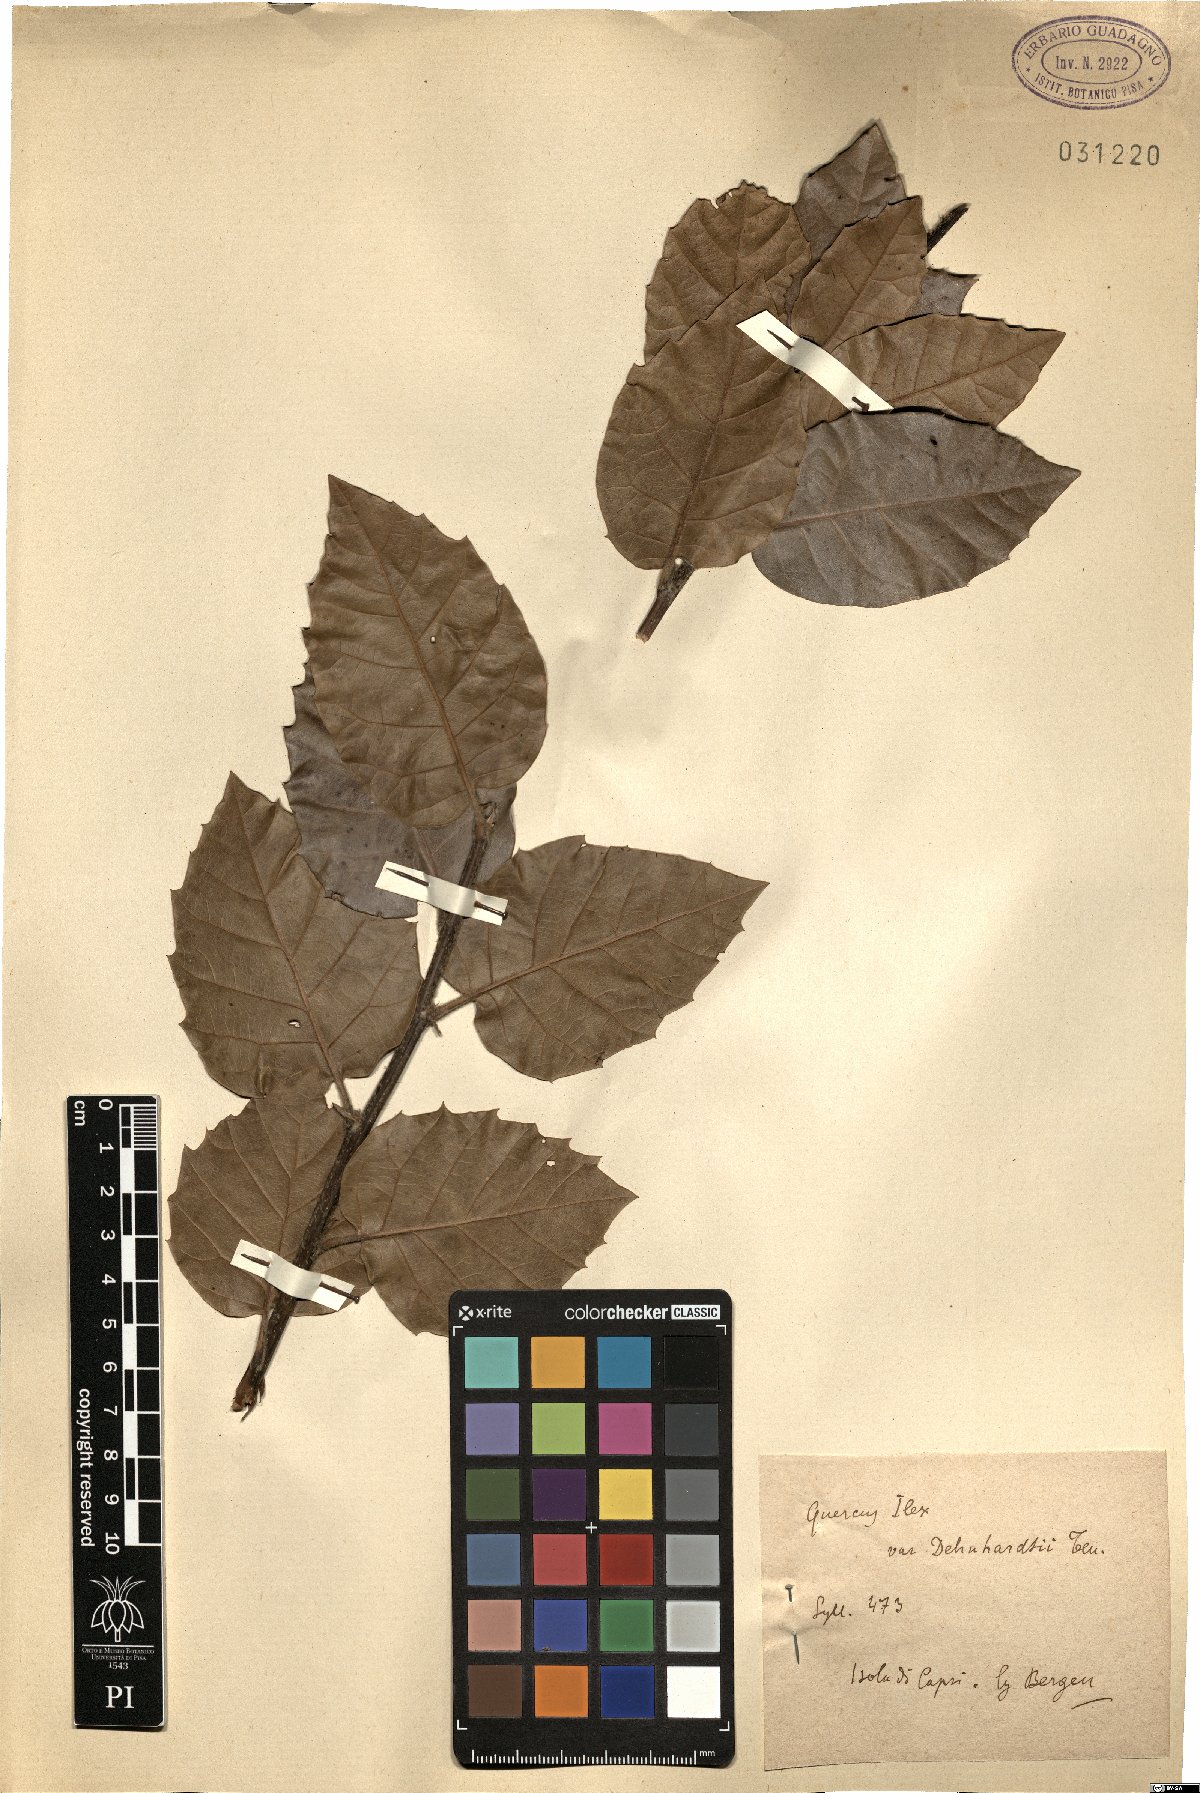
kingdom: Plantae
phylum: Tracheophyta
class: Magnoliopsida
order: Fagales
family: Fagaceae
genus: Quercus
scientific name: Quercus ilex
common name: Evergreen oak
